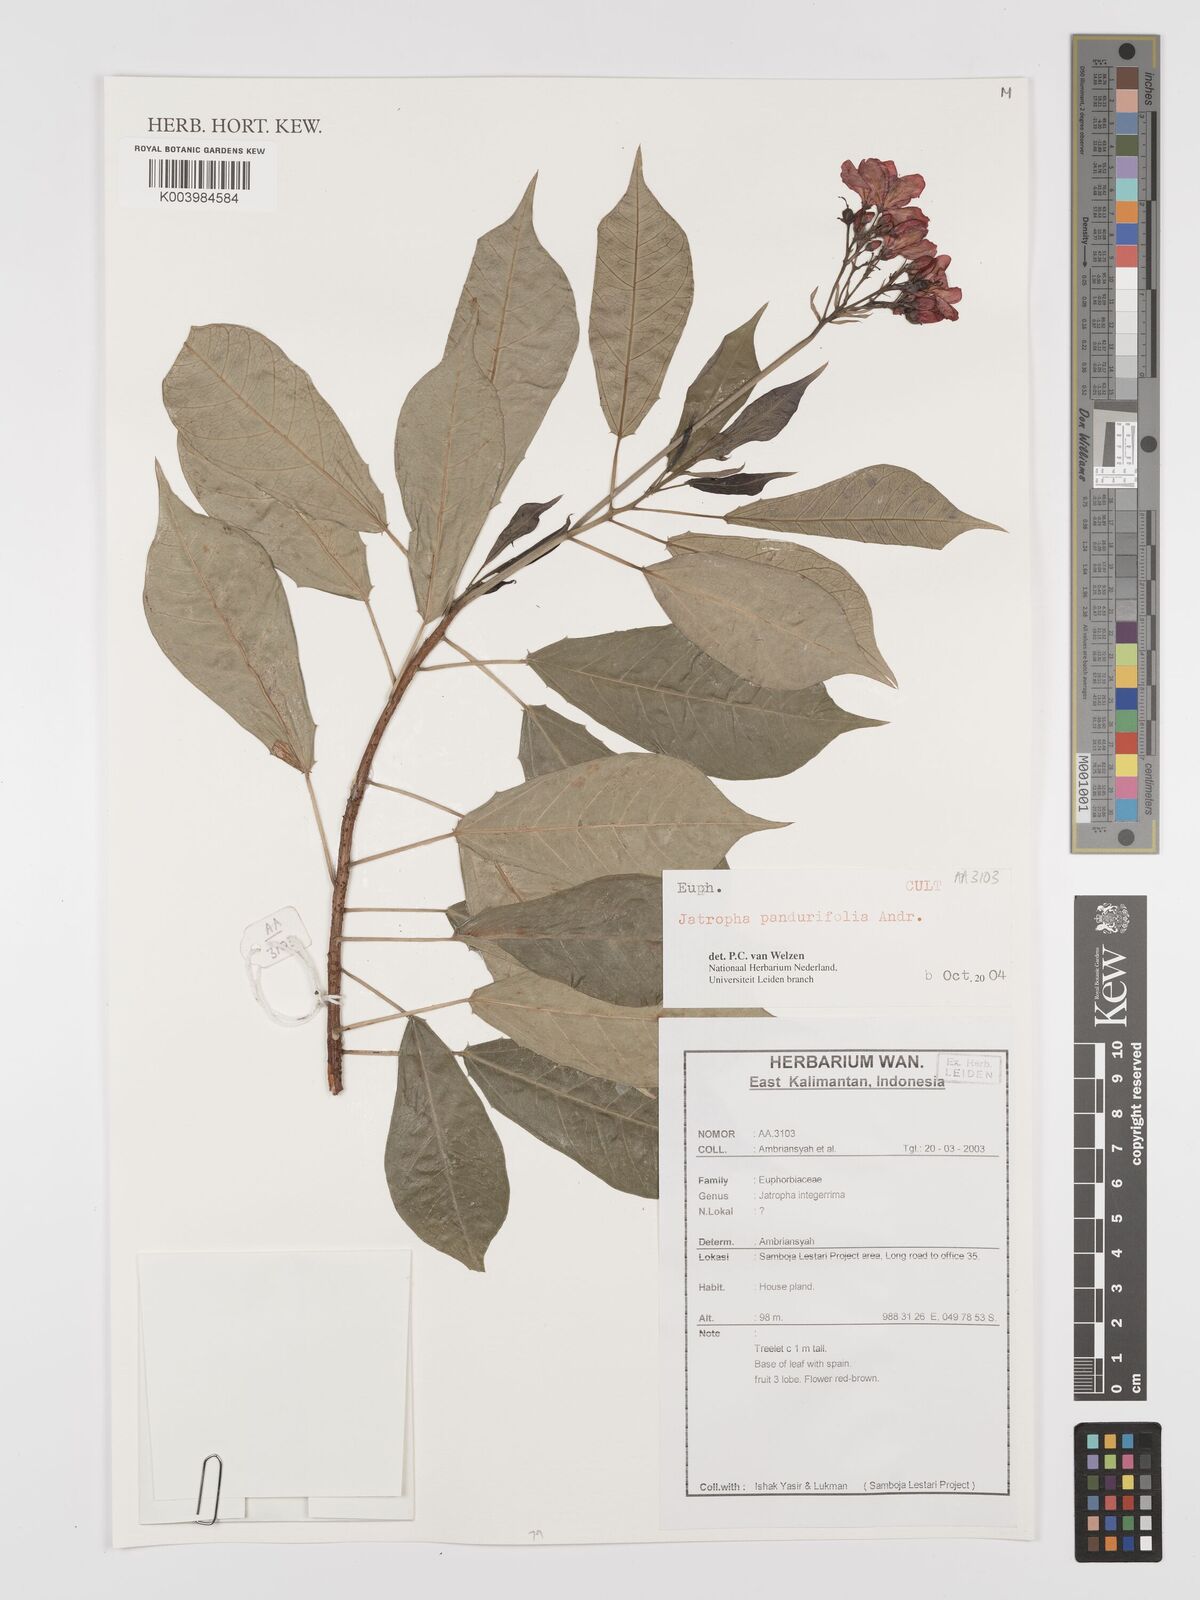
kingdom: Plantae
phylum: Tracheophyta
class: Magnoliopsida
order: Malpighiales
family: Euphorbiaceae
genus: Jatropha
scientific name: Jatropha integerrima
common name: Peregrina
